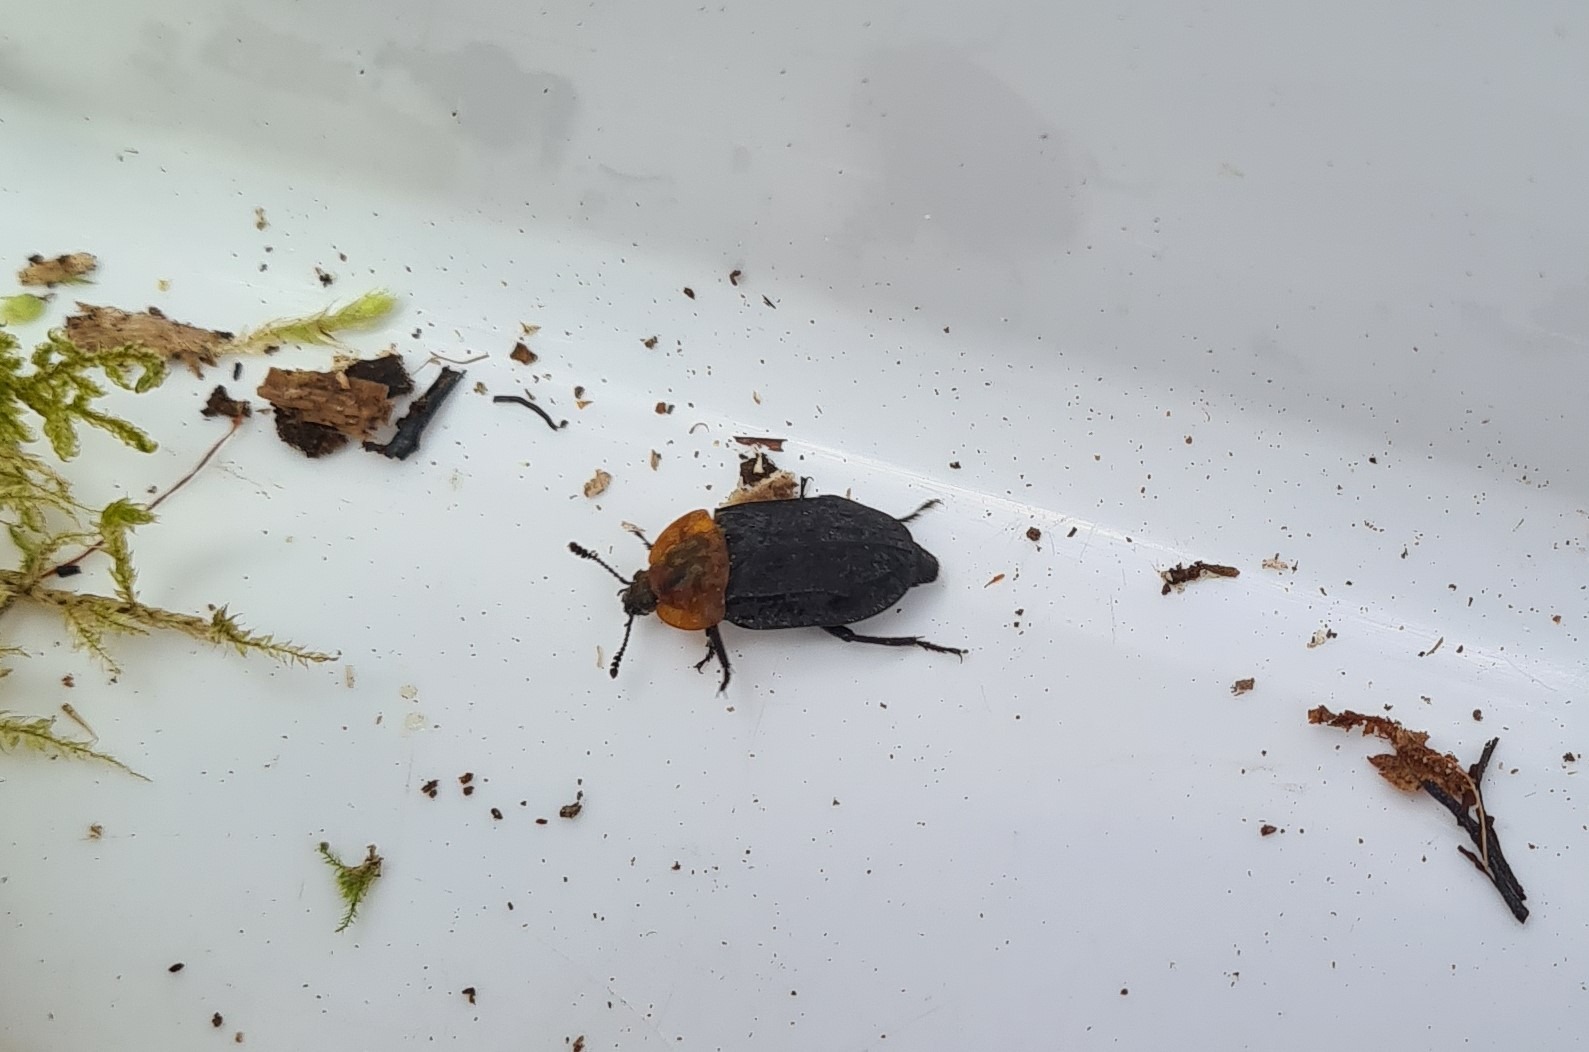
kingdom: Animalia
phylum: Arthropoda
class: Insecta
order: Coleoptera
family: Staphylinidae
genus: Oiceoptoma
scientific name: Oiceoptoma thoracicum
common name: Rødbrystet ådselbille
